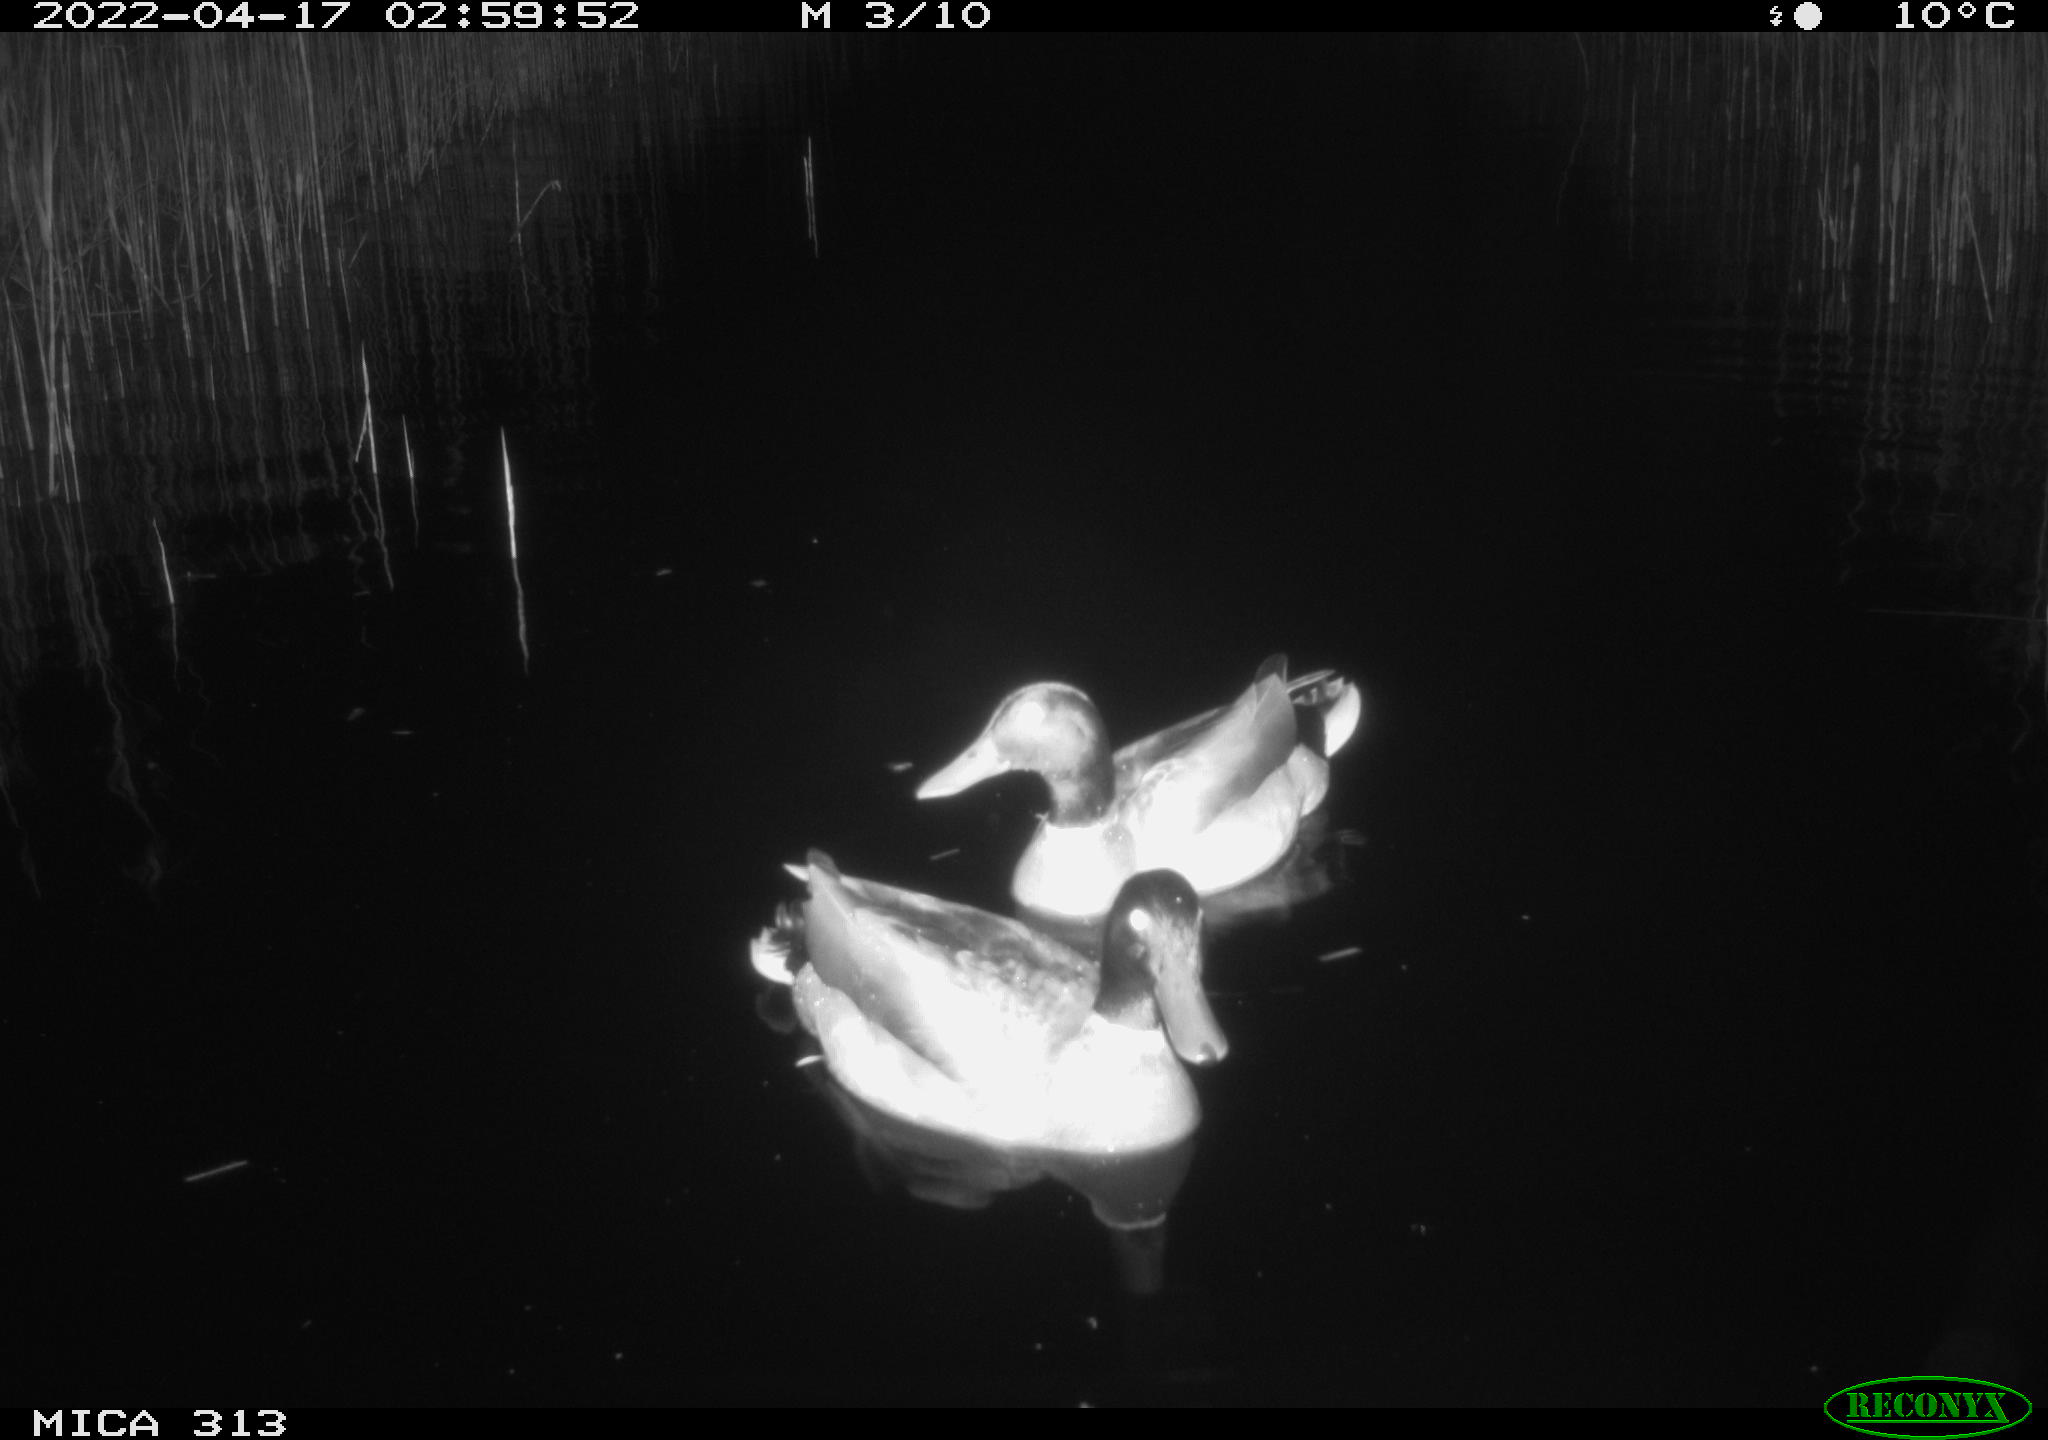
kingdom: Animalia
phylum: Chordata
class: Mammalia
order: Rodentia
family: Cricetidae
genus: Ondatra
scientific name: Ondatra zibethicus
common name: Muskrat
